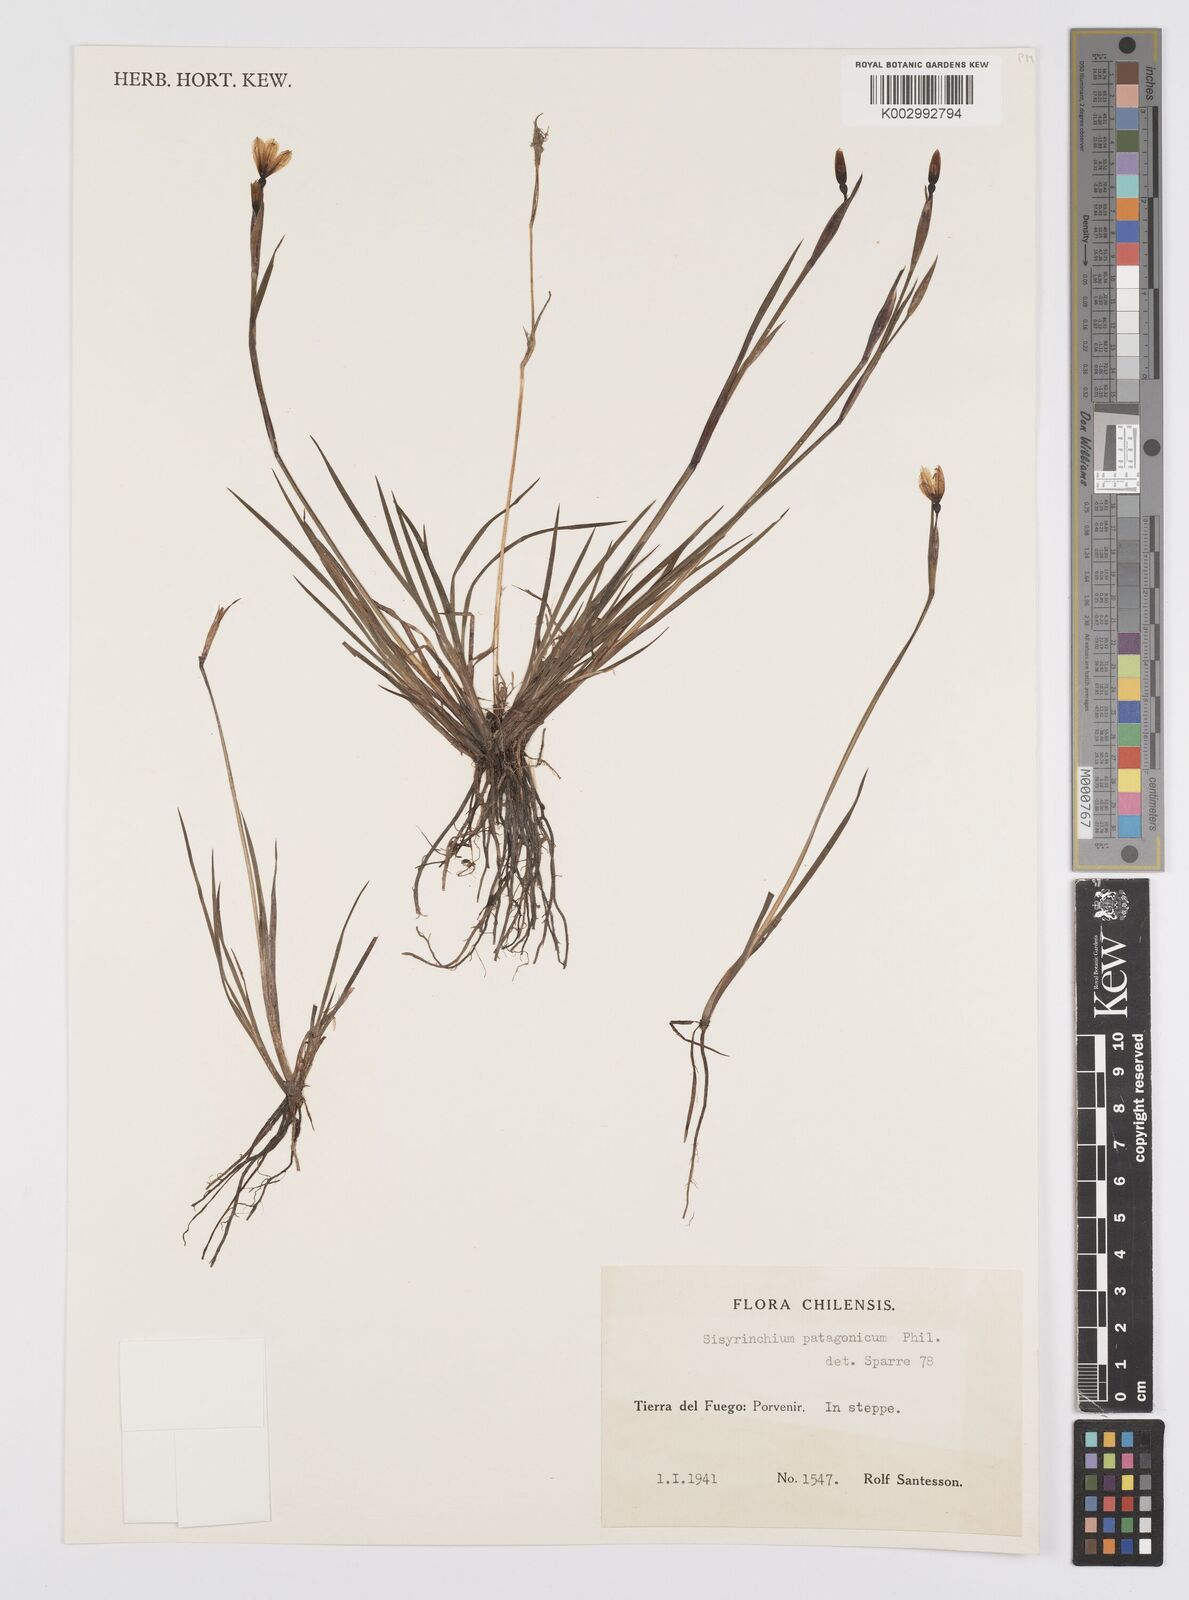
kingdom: Plantae
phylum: Tracheophyta
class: Liliopsida
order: Asparagales
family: Iridaceae
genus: Sisyrinchium
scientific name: Sisyrinchium patagonicum
